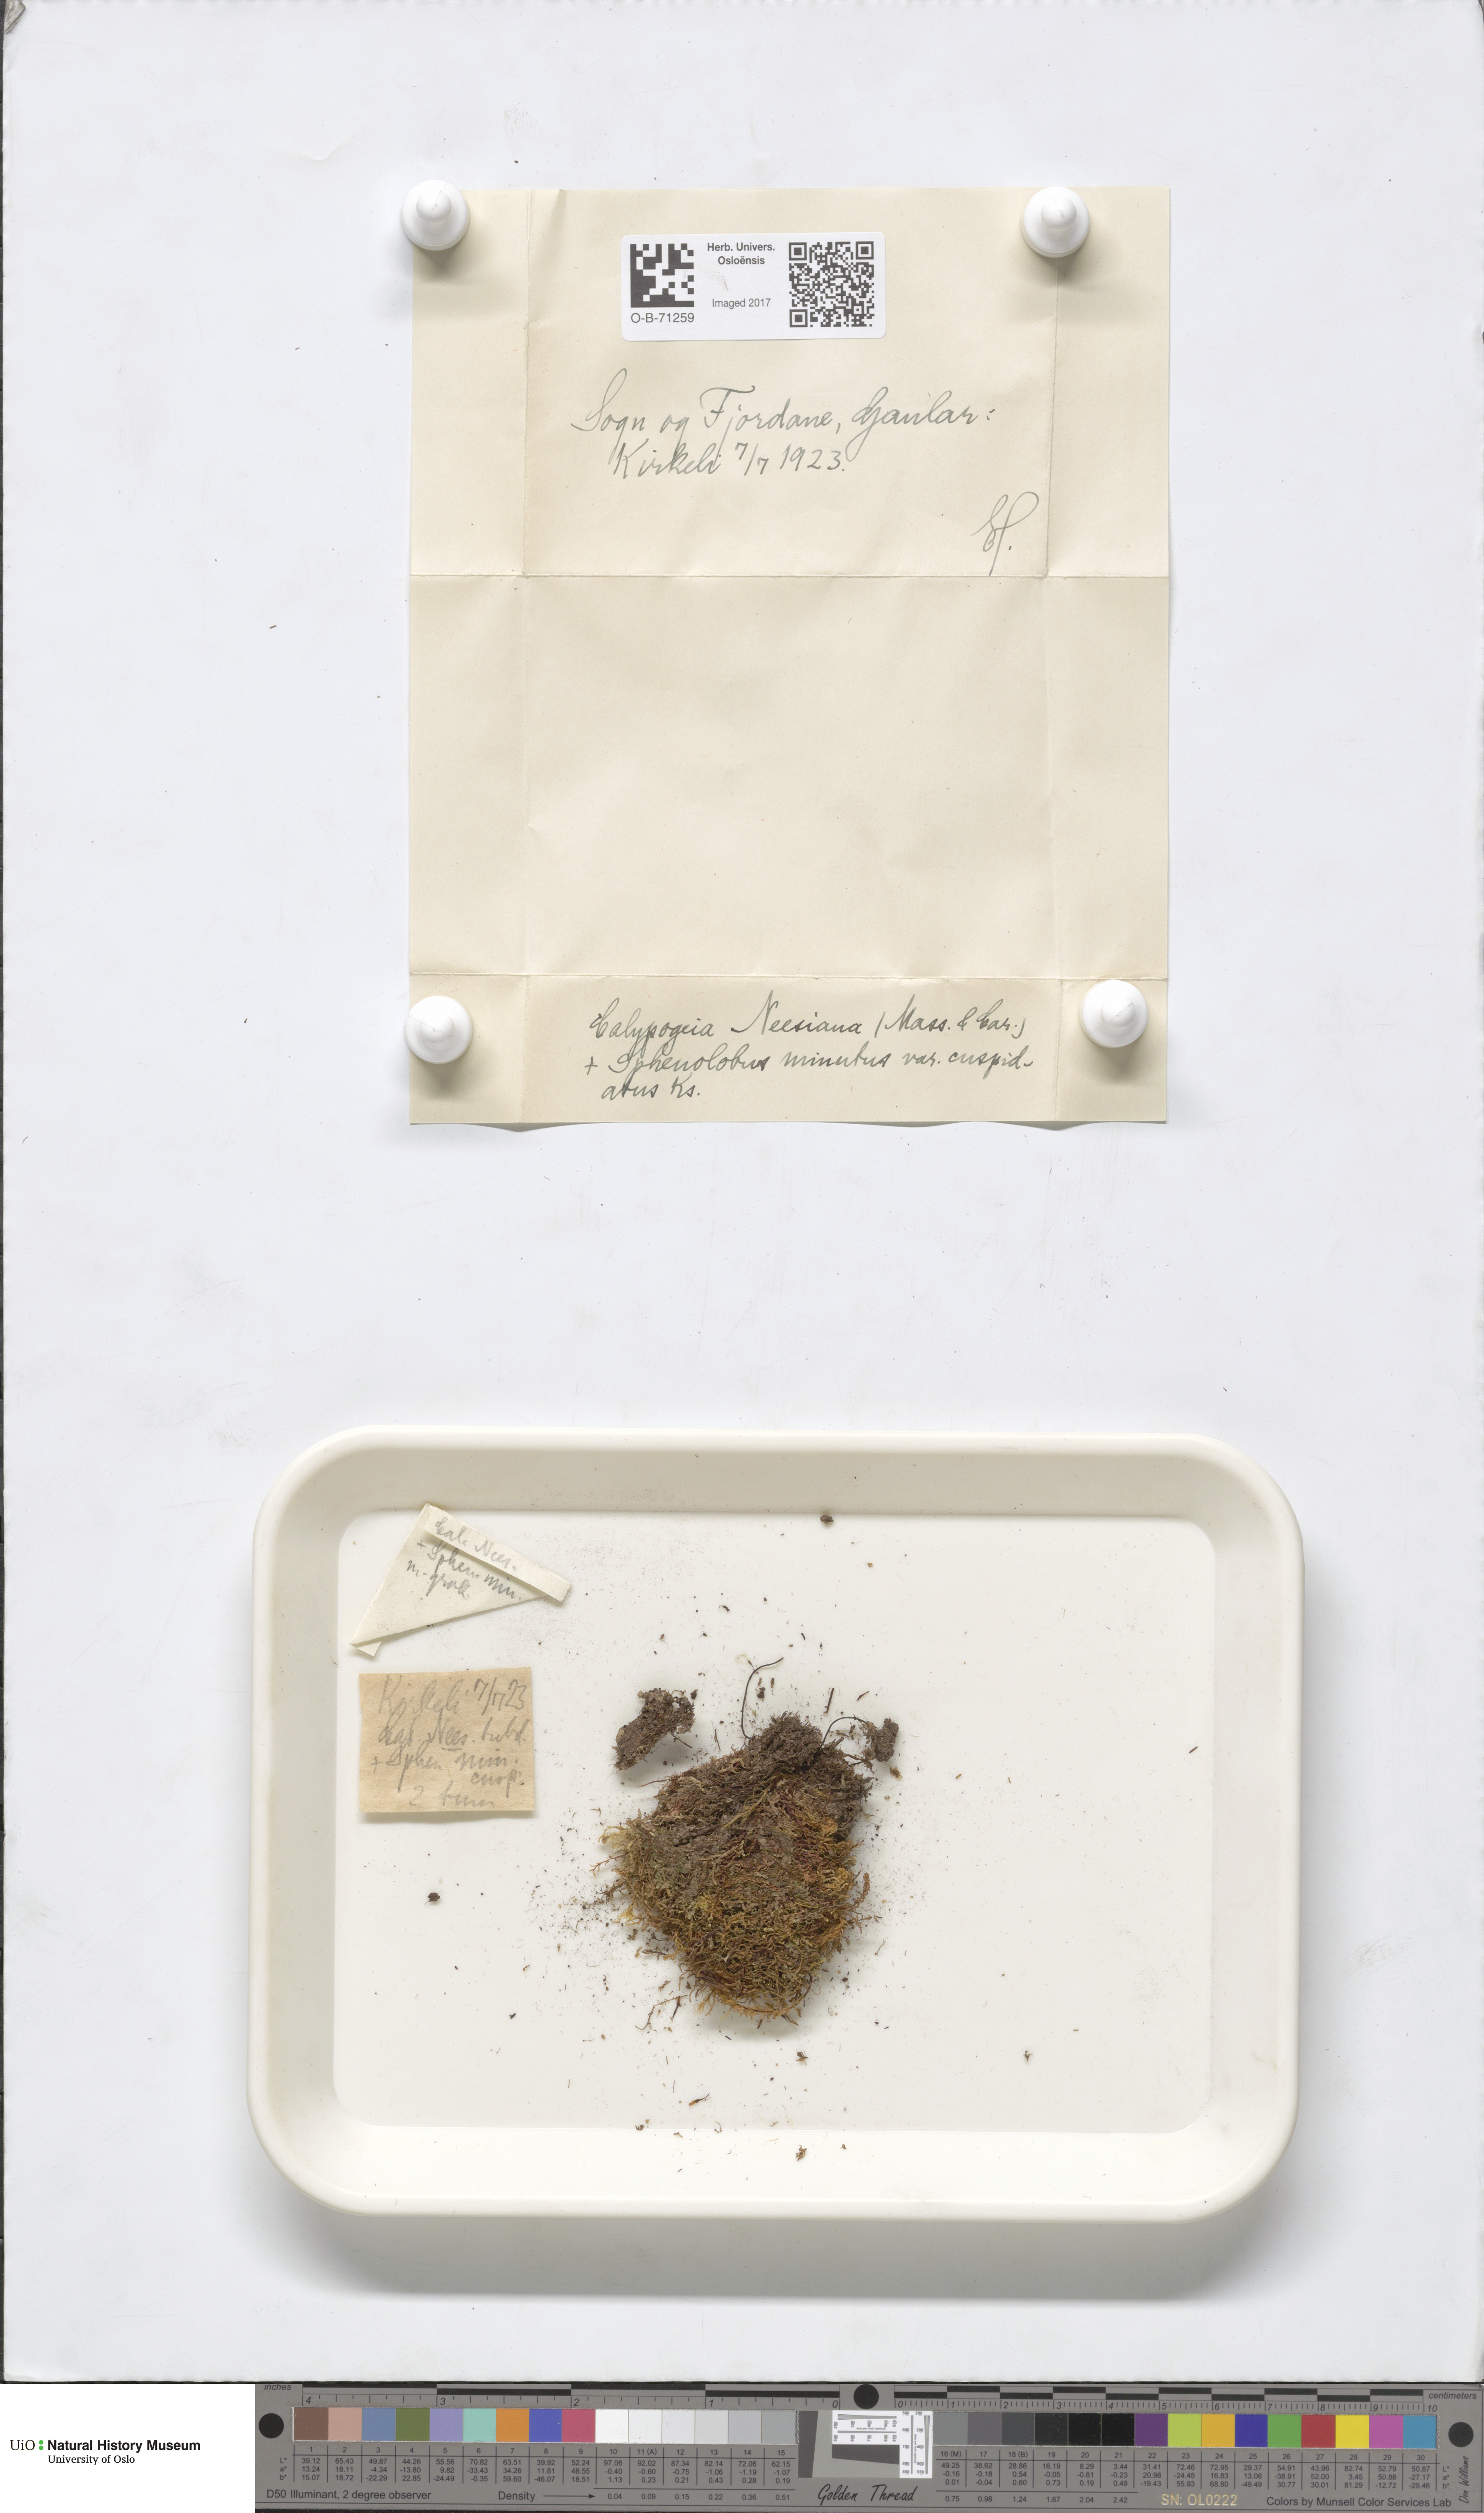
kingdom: Plantae
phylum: Marchantiophyta
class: Jungermanniopsida
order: Jungermanniales
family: Calypogeiaceae
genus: Calypogeia
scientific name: Calypogeia neesiana
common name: Nees  pouchwort
